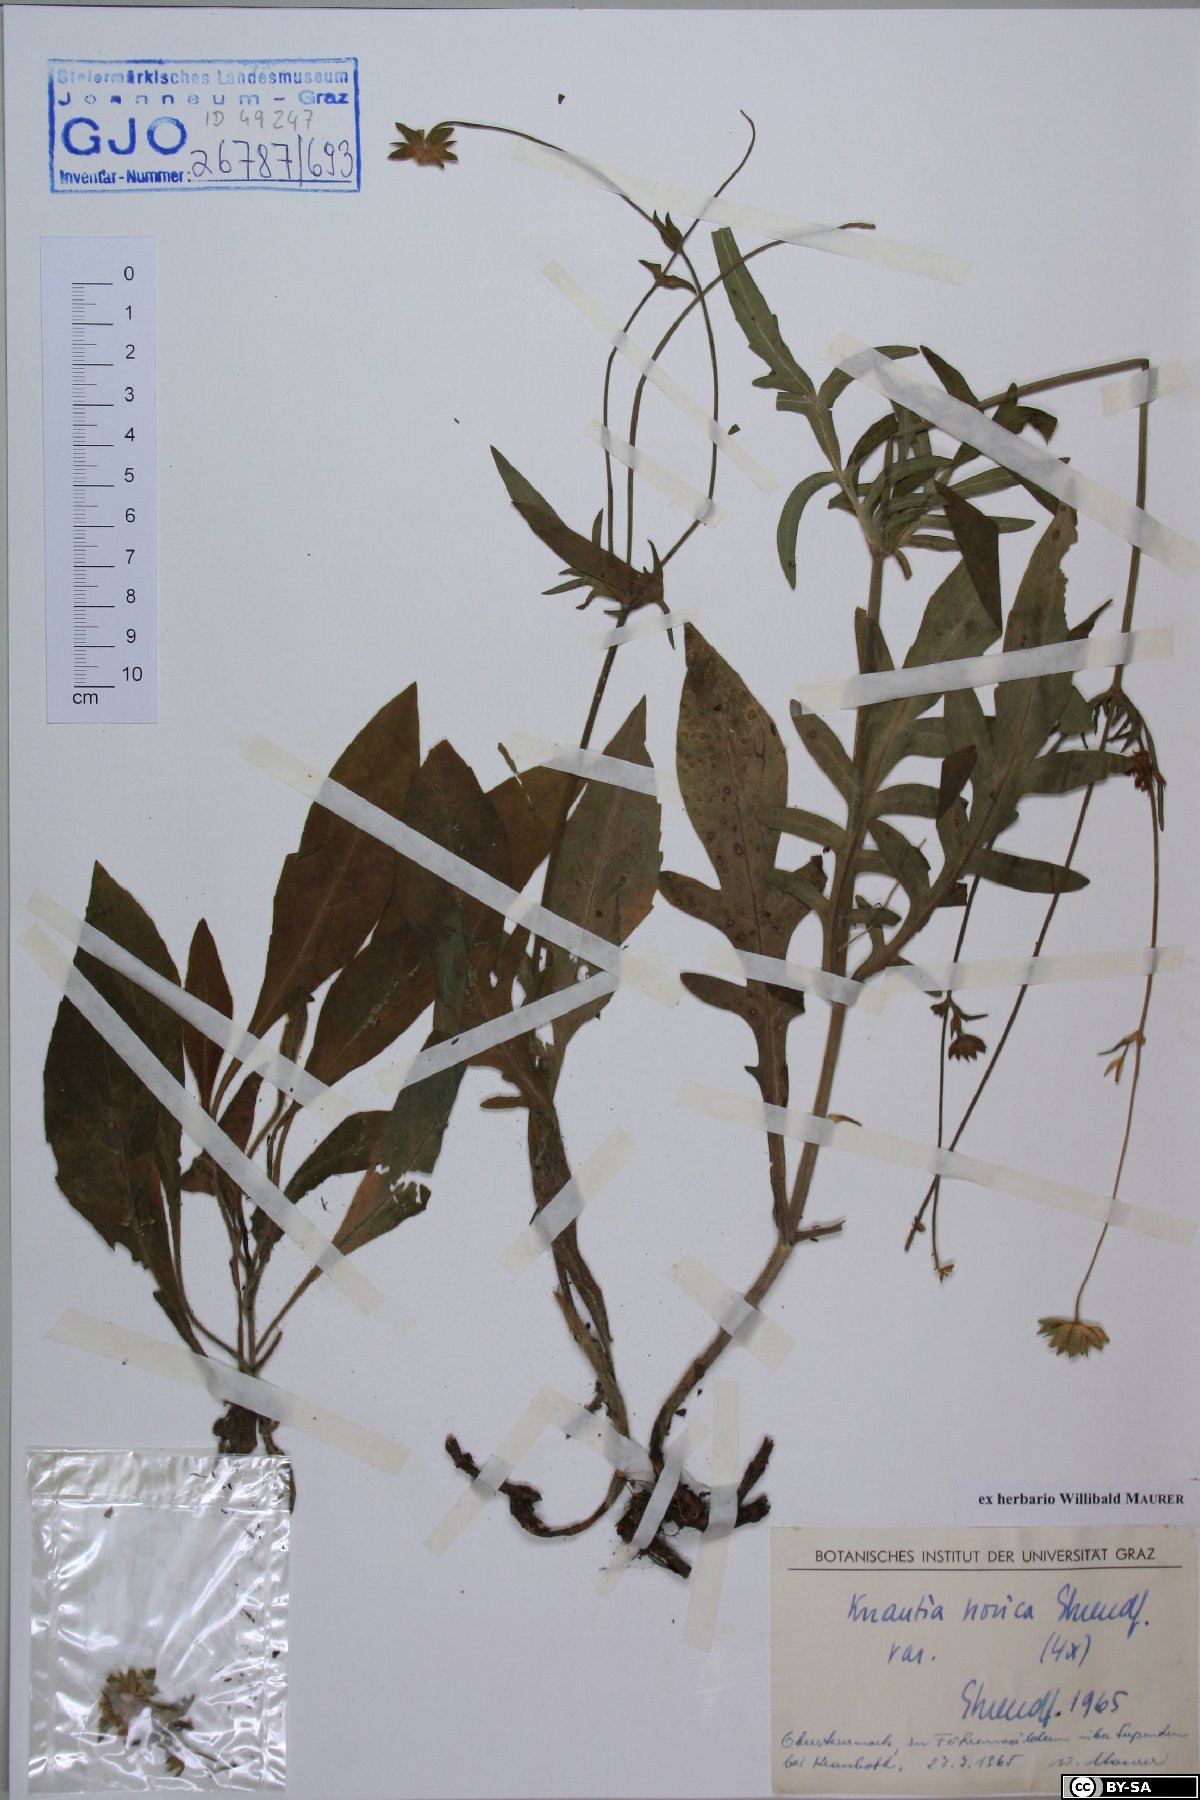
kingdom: Plantae
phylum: Tracheophyta
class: Magnoliopsida
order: Dipsacales
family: Caprifoliaceae
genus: Knautia
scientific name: Knautia norica
